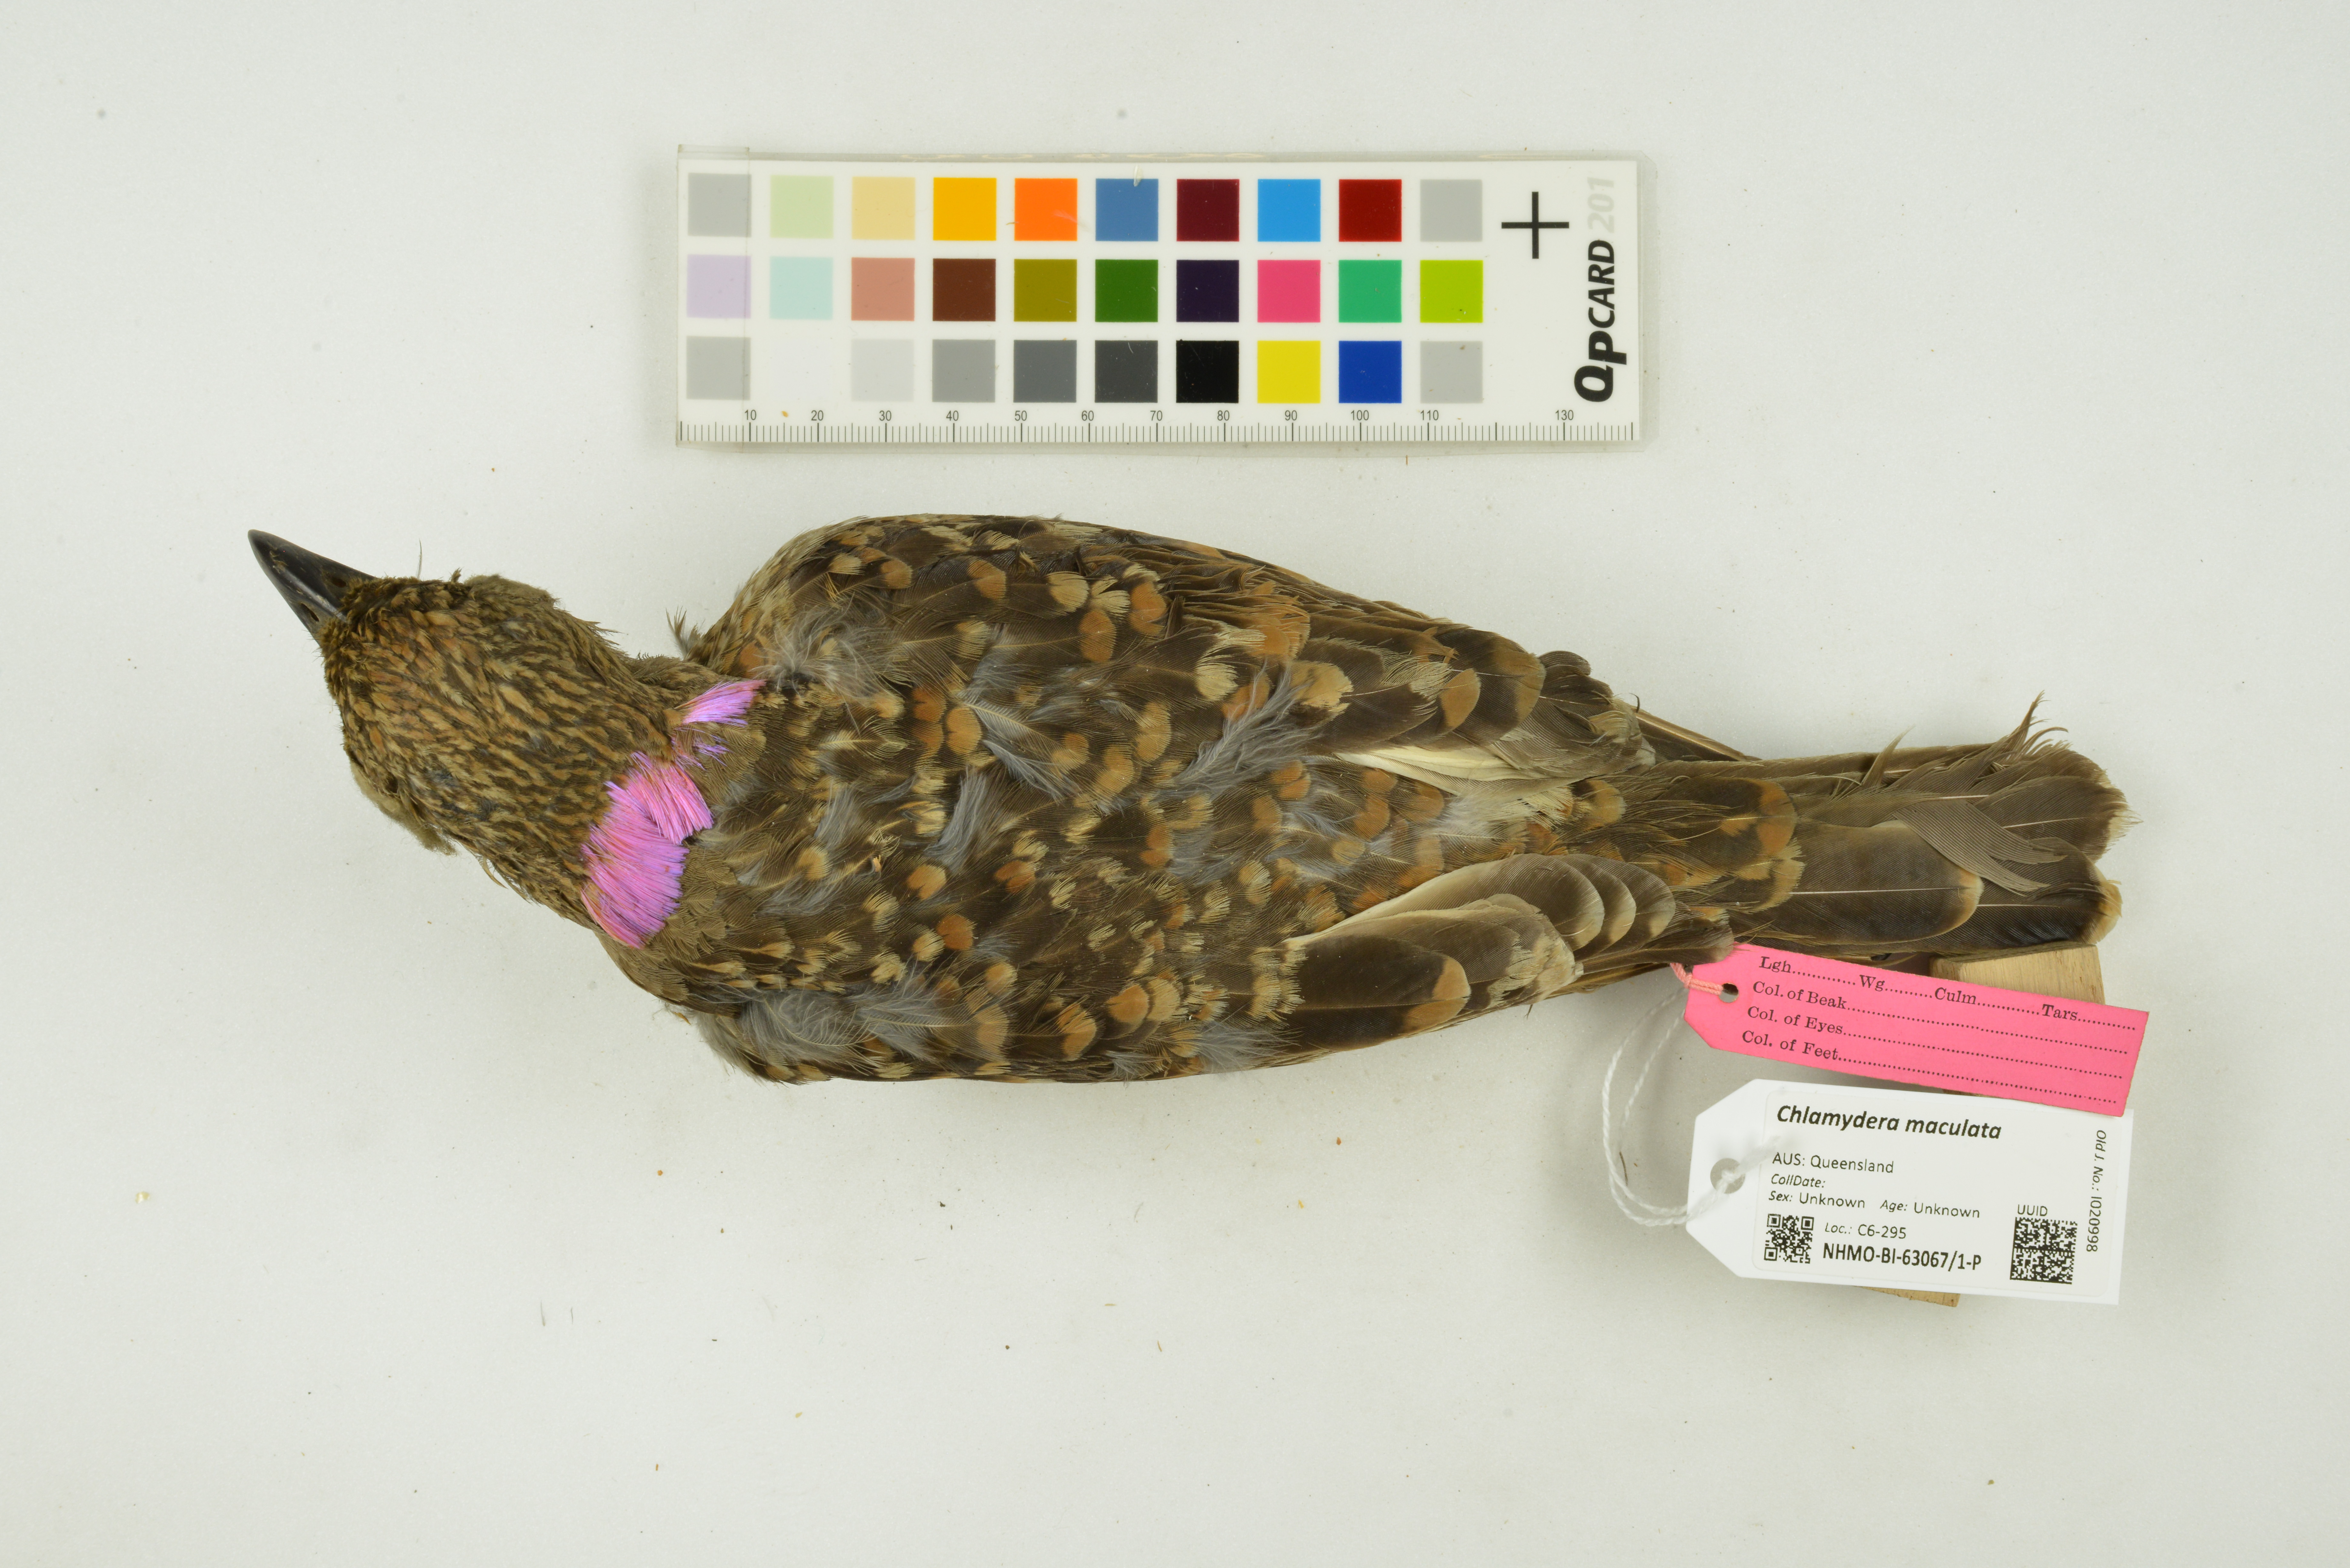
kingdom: Animalia
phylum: Chordata
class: Aves
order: Passeriformes
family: Ptilonorhynchidae
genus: Chlamydera
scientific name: Chlamydera maculata
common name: Spotted bowerbird
